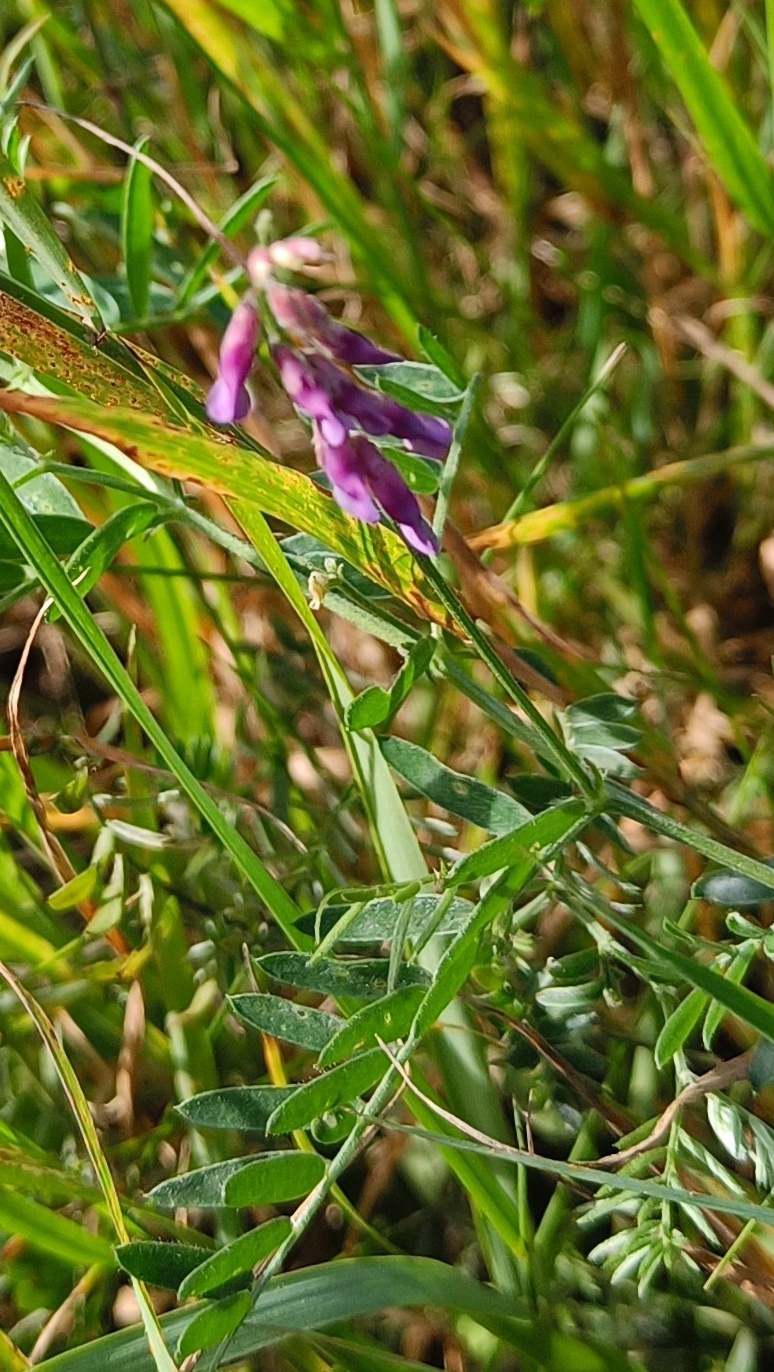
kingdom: Plantae
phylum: Tracheophyta
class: Magnoliopsida
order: Fabales
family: Fabaceae
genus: Vicia
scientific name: Vicia cracca
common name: Muse-vikke
